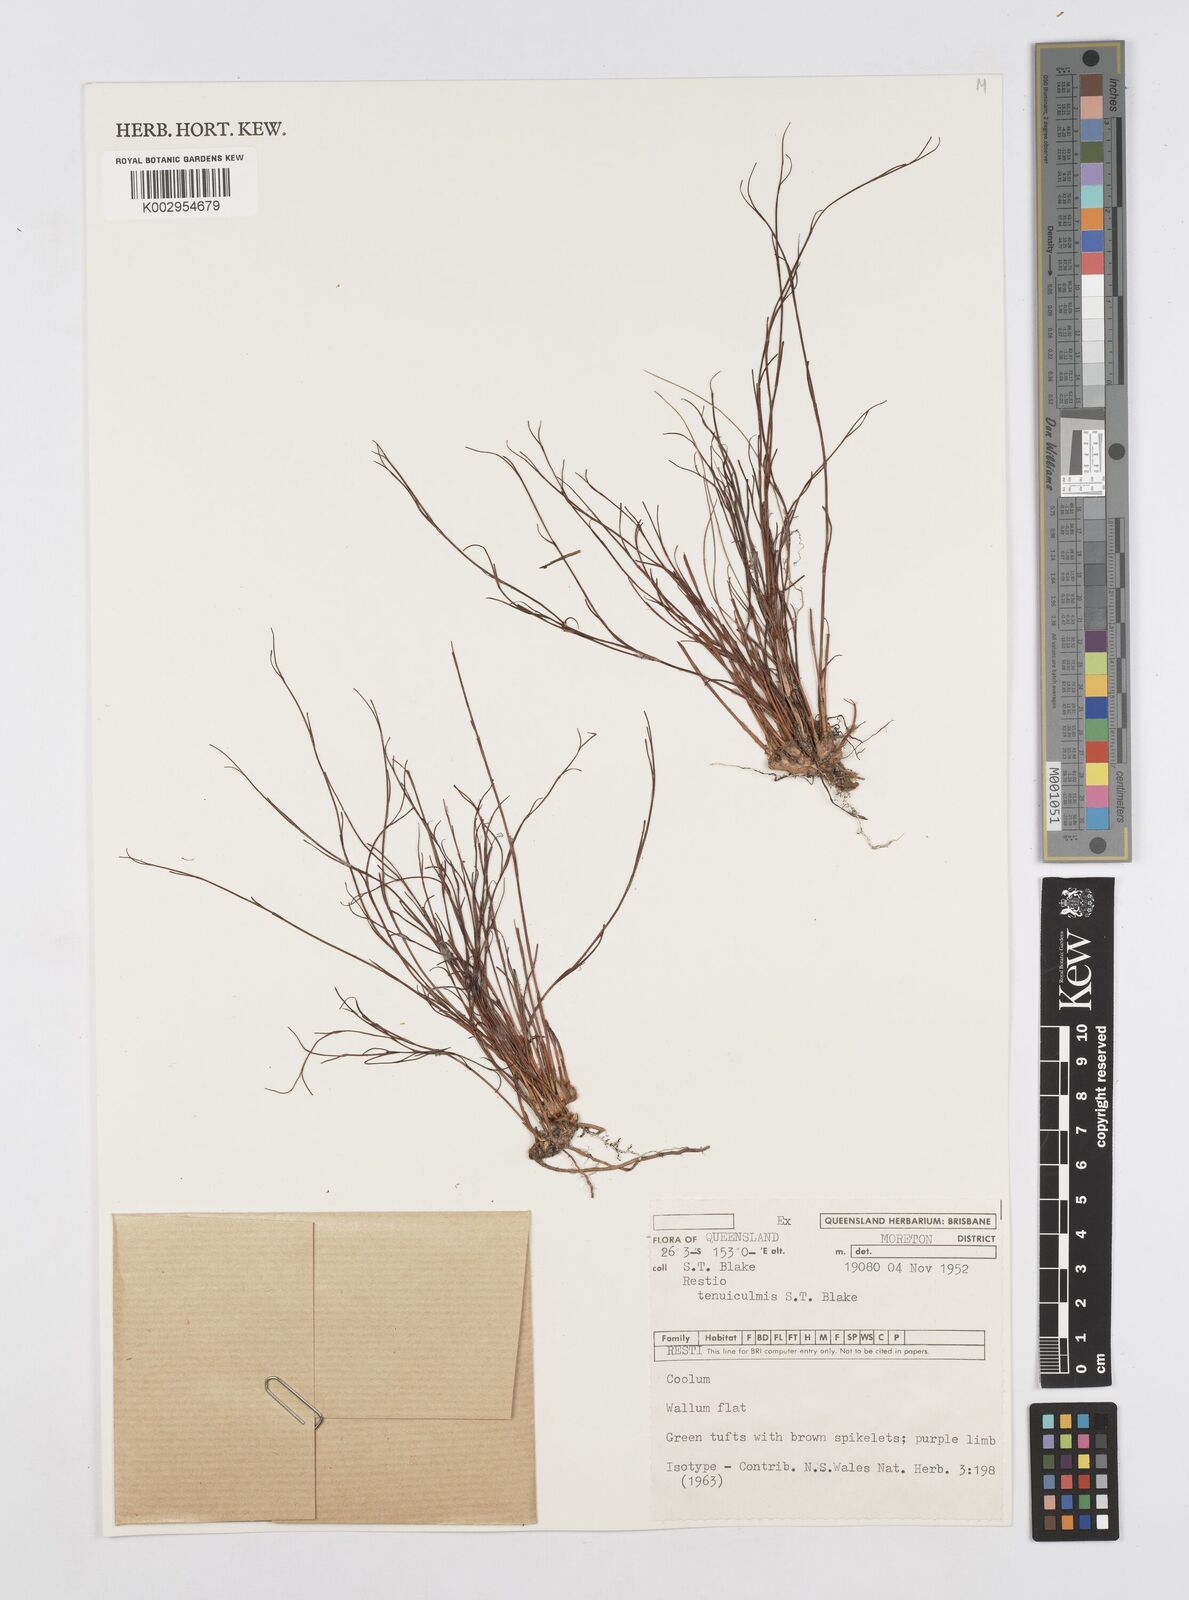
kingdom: Plantae
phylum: Tracheophyta
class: Liliopsida
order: Poales
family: Restionaceae
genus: Baloskion
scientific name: Baloskion tenuiculme
